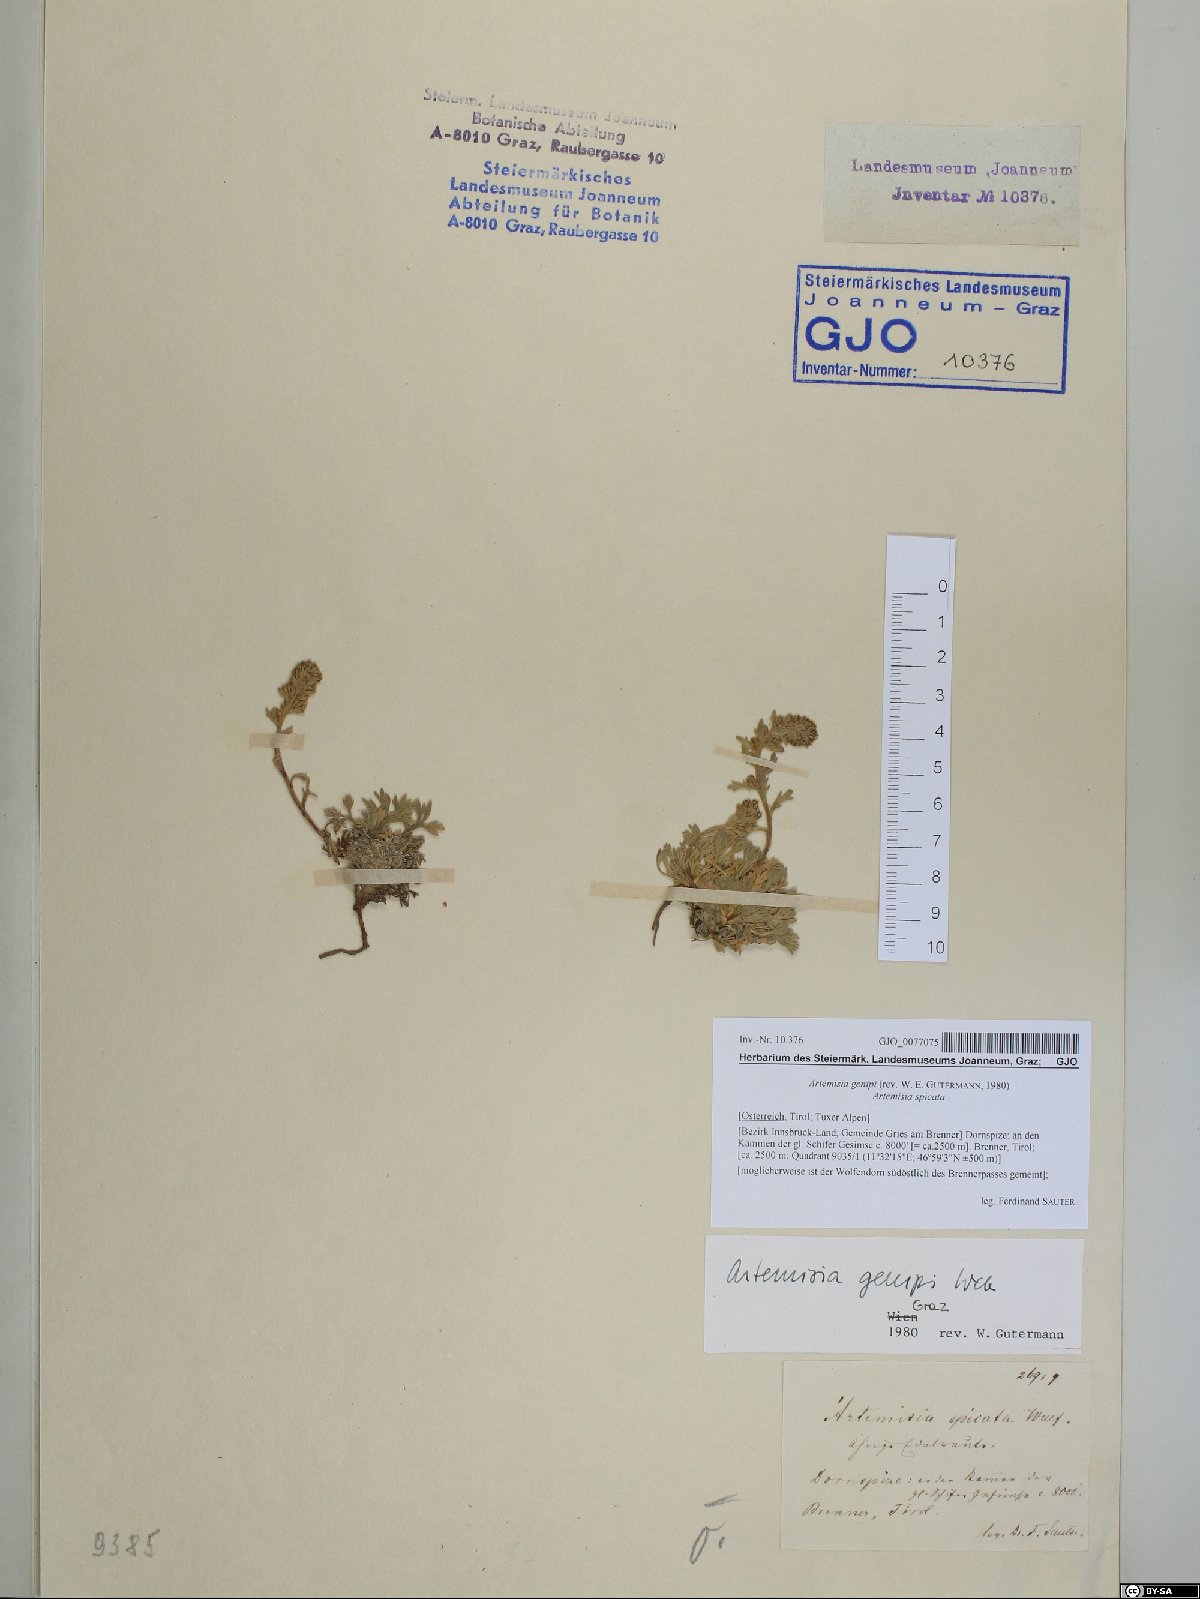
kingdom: Plantae
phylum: Tracheophyta
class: Magnoliopsida
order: Asterales
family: Asteraceae
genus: Artemisia
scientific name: Artemisia genipi
